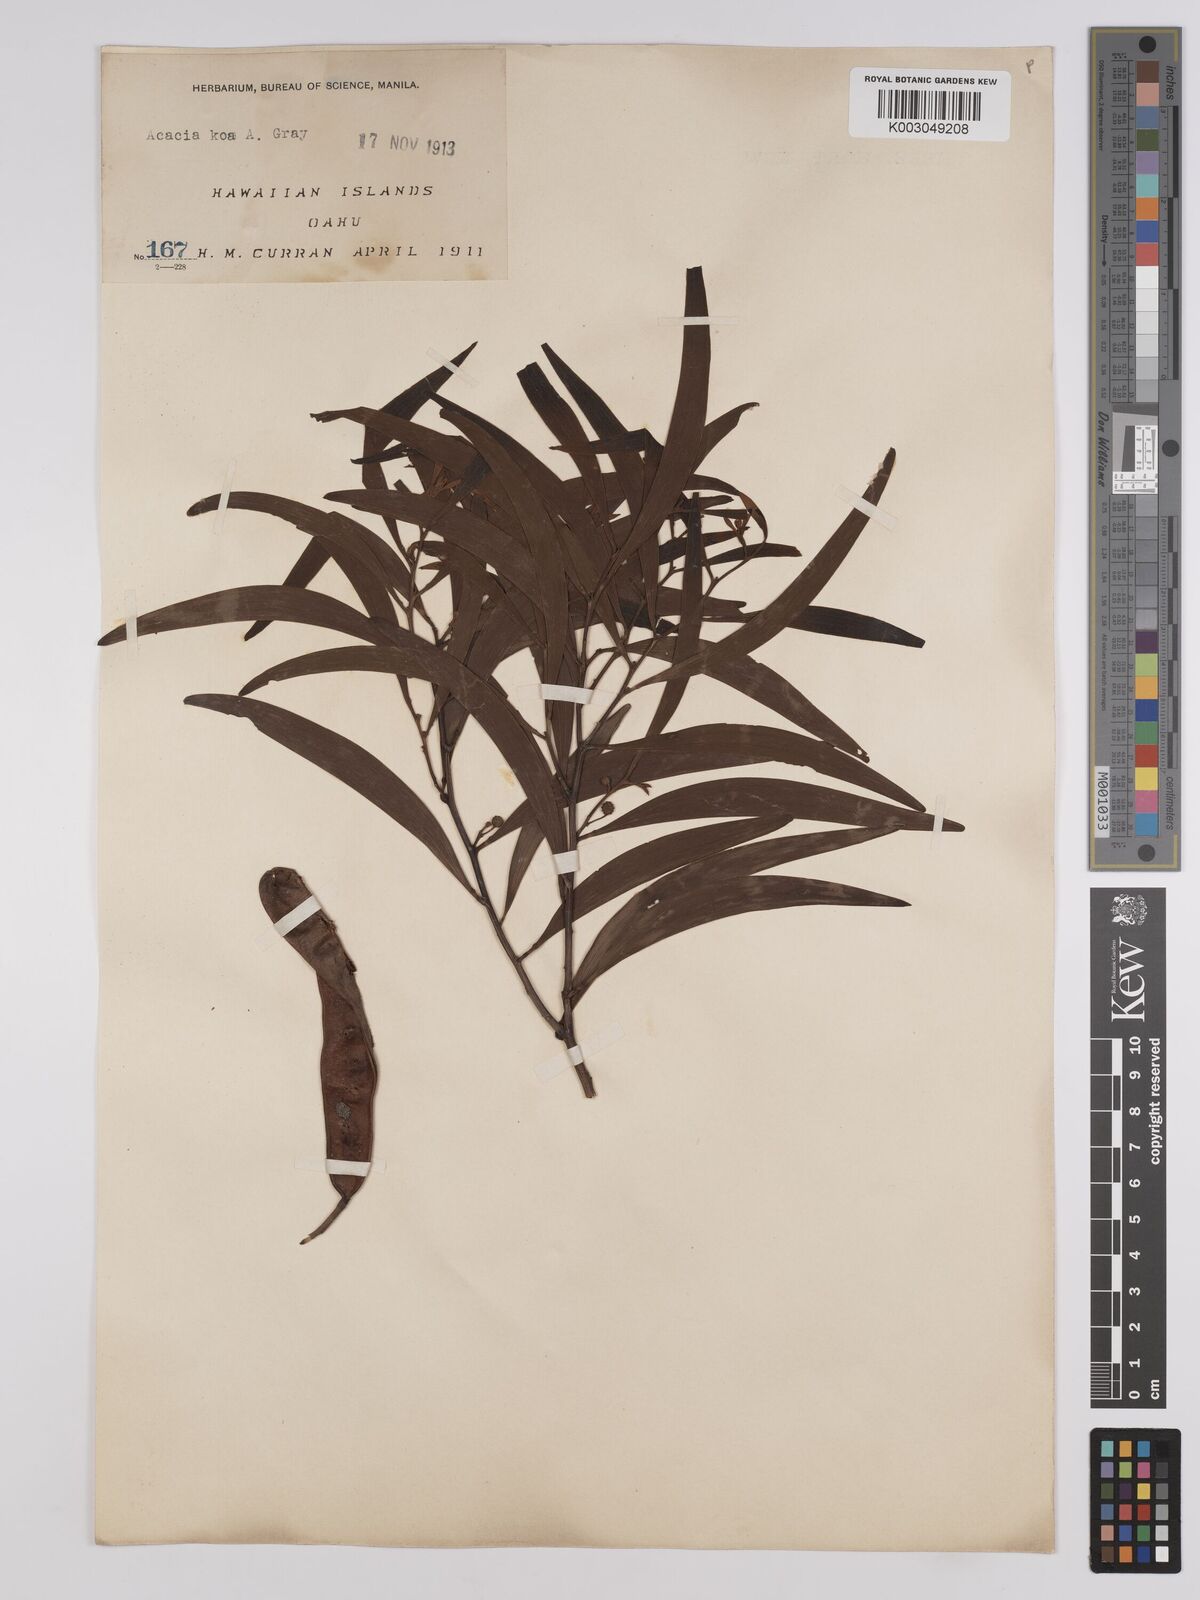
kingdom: Plantae
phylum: Tracheophyta
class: Magnoliopsida
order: Fabales
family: Fabaceae
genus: Acacia
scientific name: Acacia koa
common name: Gray koa
